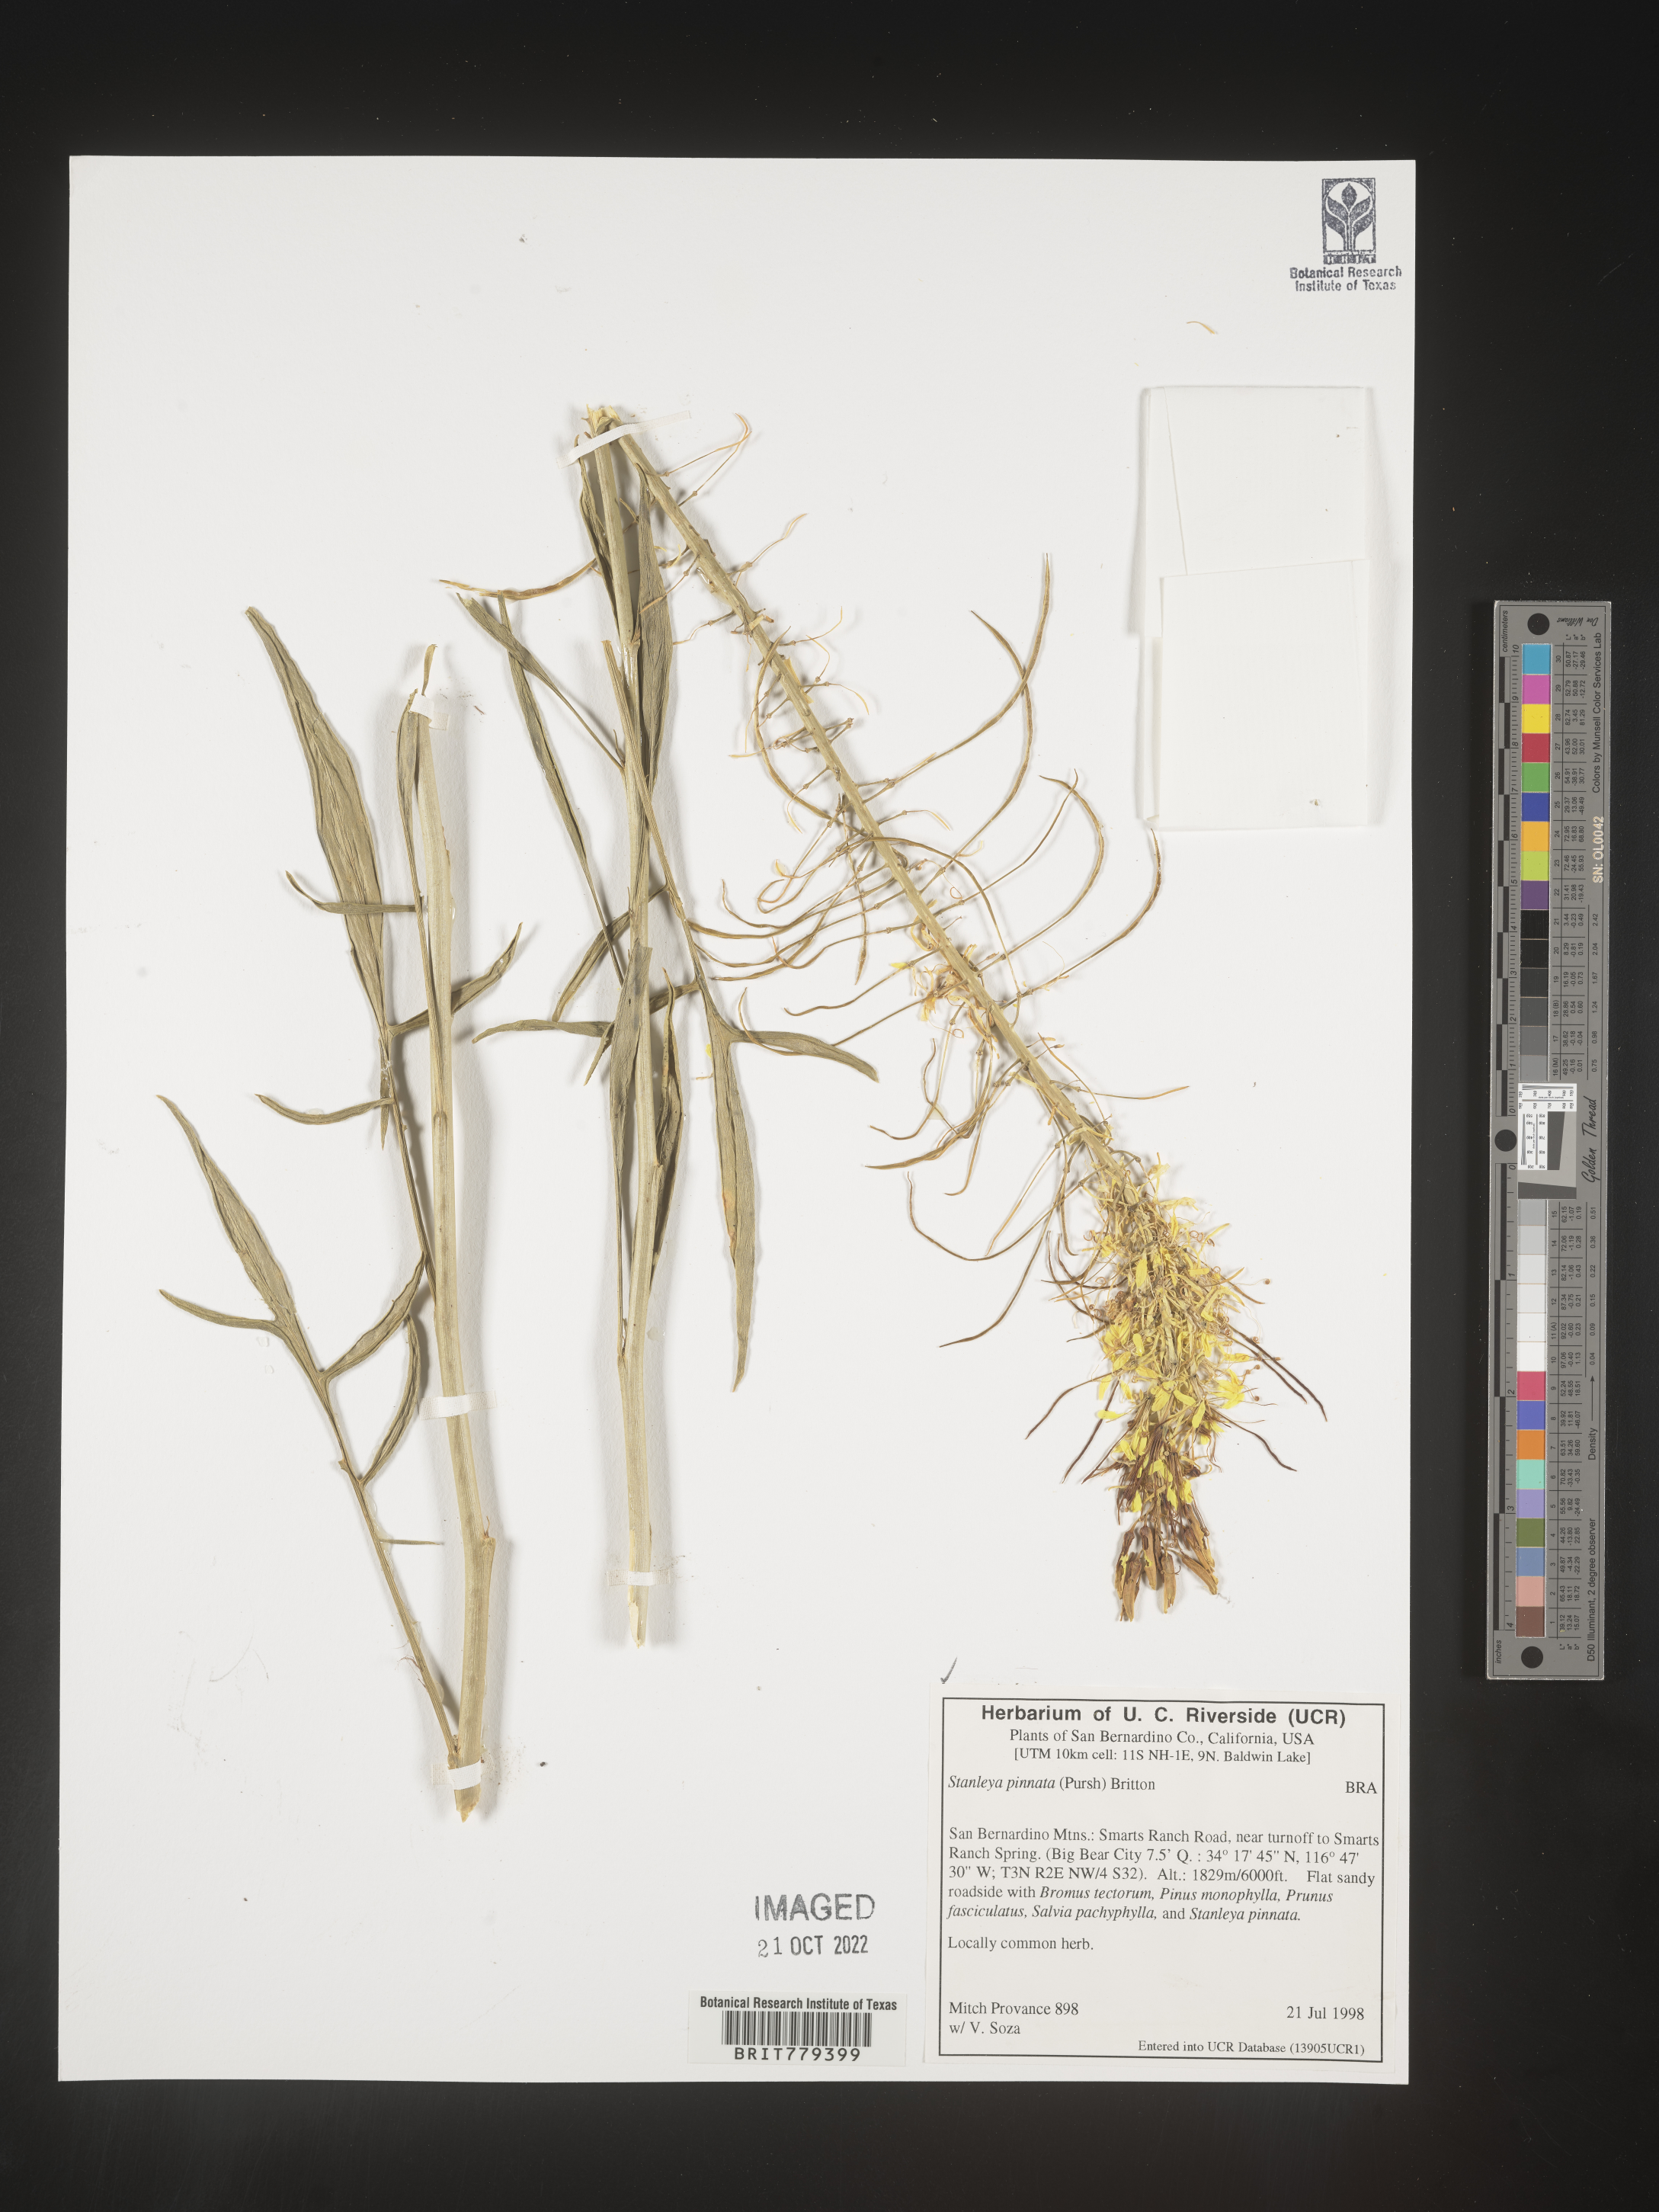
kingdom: Plantae
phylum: Tracheophyta
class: Magnoliopsida
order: Brassicales
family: Brassicaceae
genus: Stanleya
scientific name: Stanleya pinnata
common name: Prince's-plume
